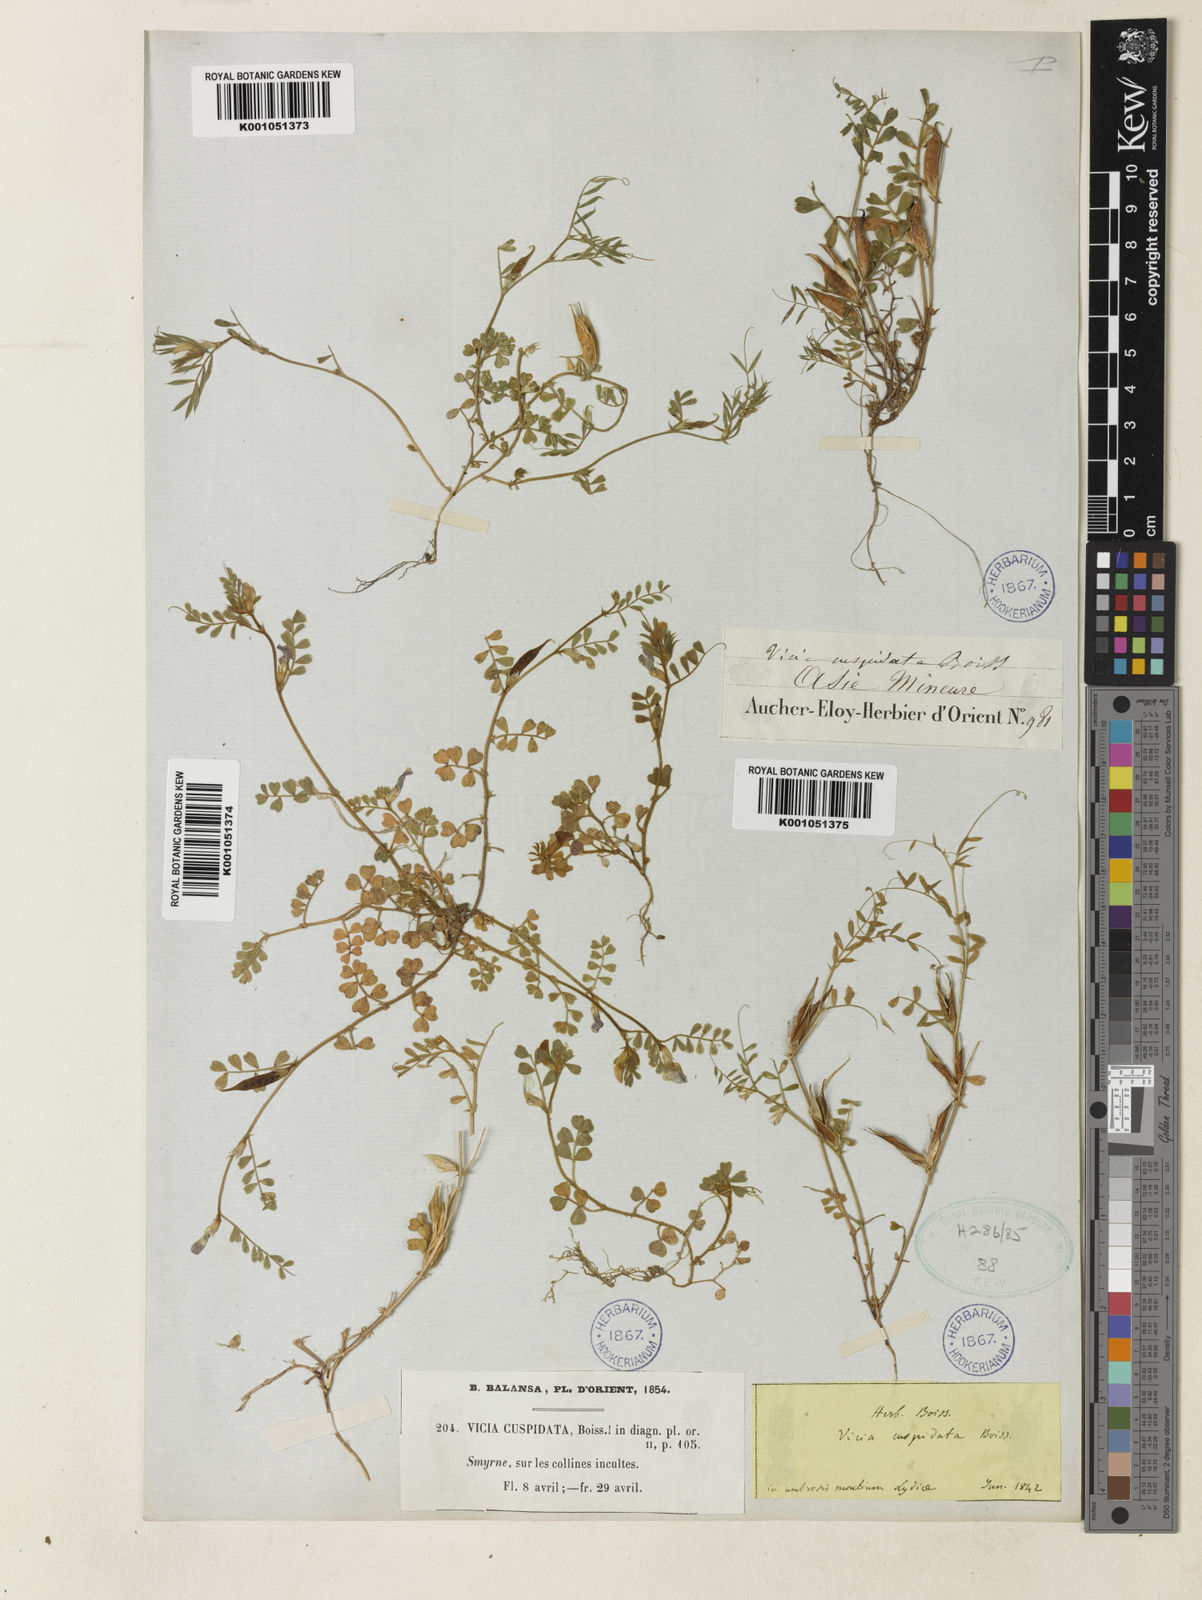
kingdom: Plantae
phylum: Tracheophyta
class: Magnoliopsida
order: Fabales
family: Fabaceae
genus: Vicia
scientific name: Vicia cuspidata
